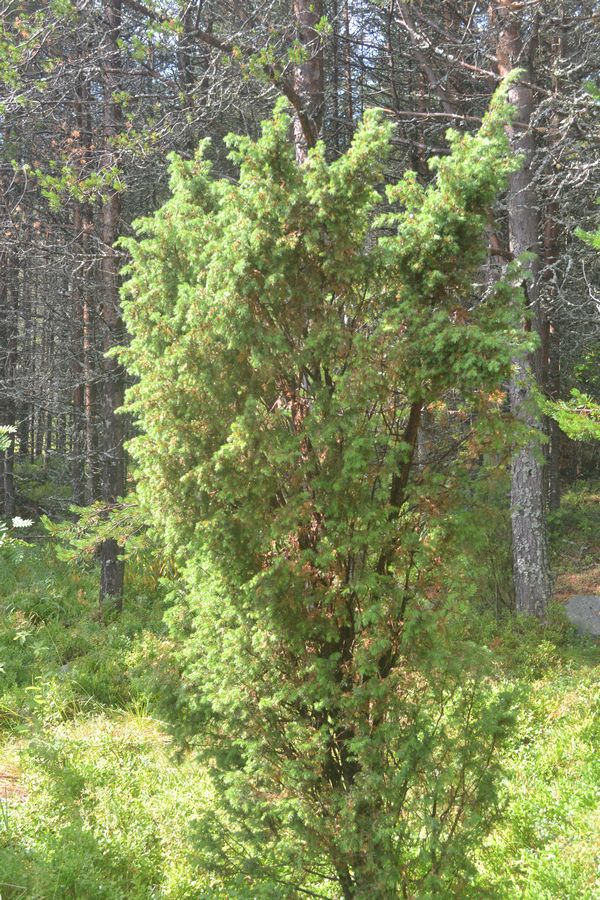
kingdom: Plantae
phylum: Tracheophyta
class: Pinopsida
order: Pinales
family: Cupressaceae
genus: Juniperus
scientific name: Juniperus communis
